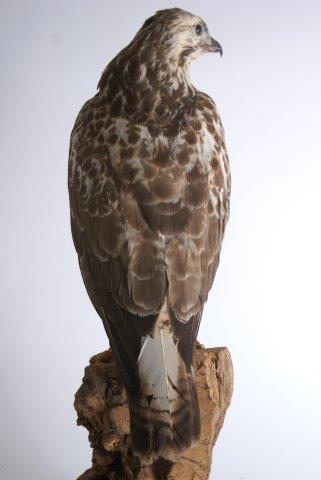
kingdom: Animalia
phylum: Chordata
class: Aves
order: Accipitriformes
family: Accipitridae
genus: Buteo
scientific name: Buteo buteo
